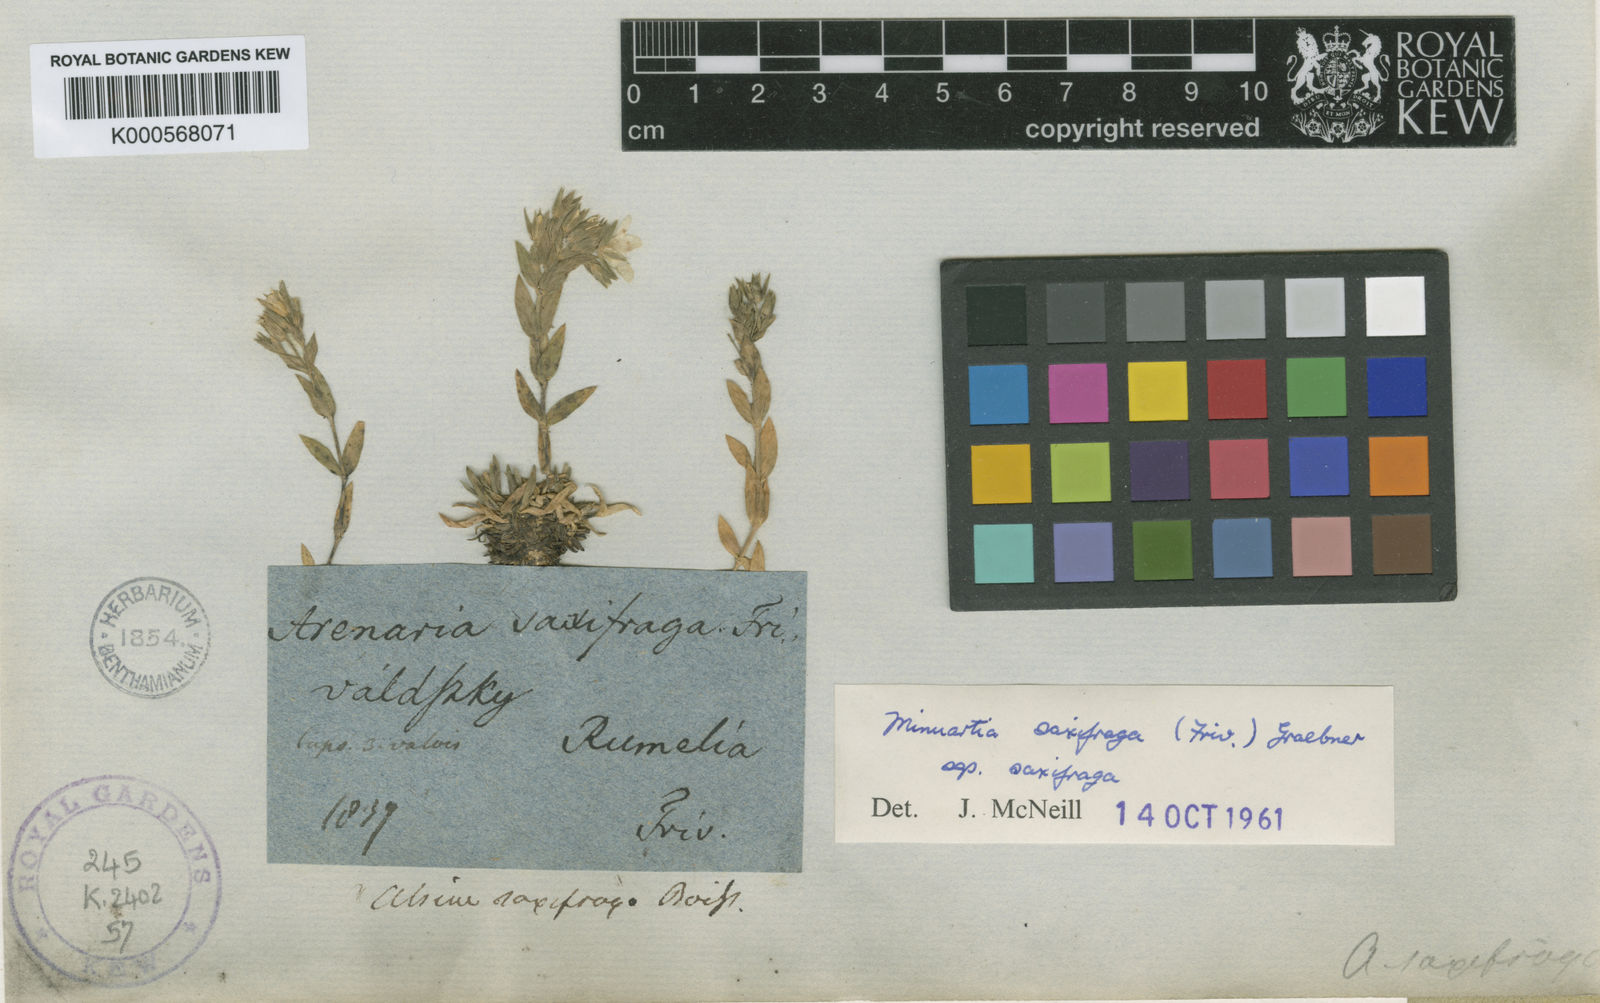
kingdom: Plantae
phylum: Tracheophyta
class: Magnoliopsida
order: Caryophyllales
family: Caryophyllaceae
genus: Mcneillia
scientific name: Mcneillia saxifraga
